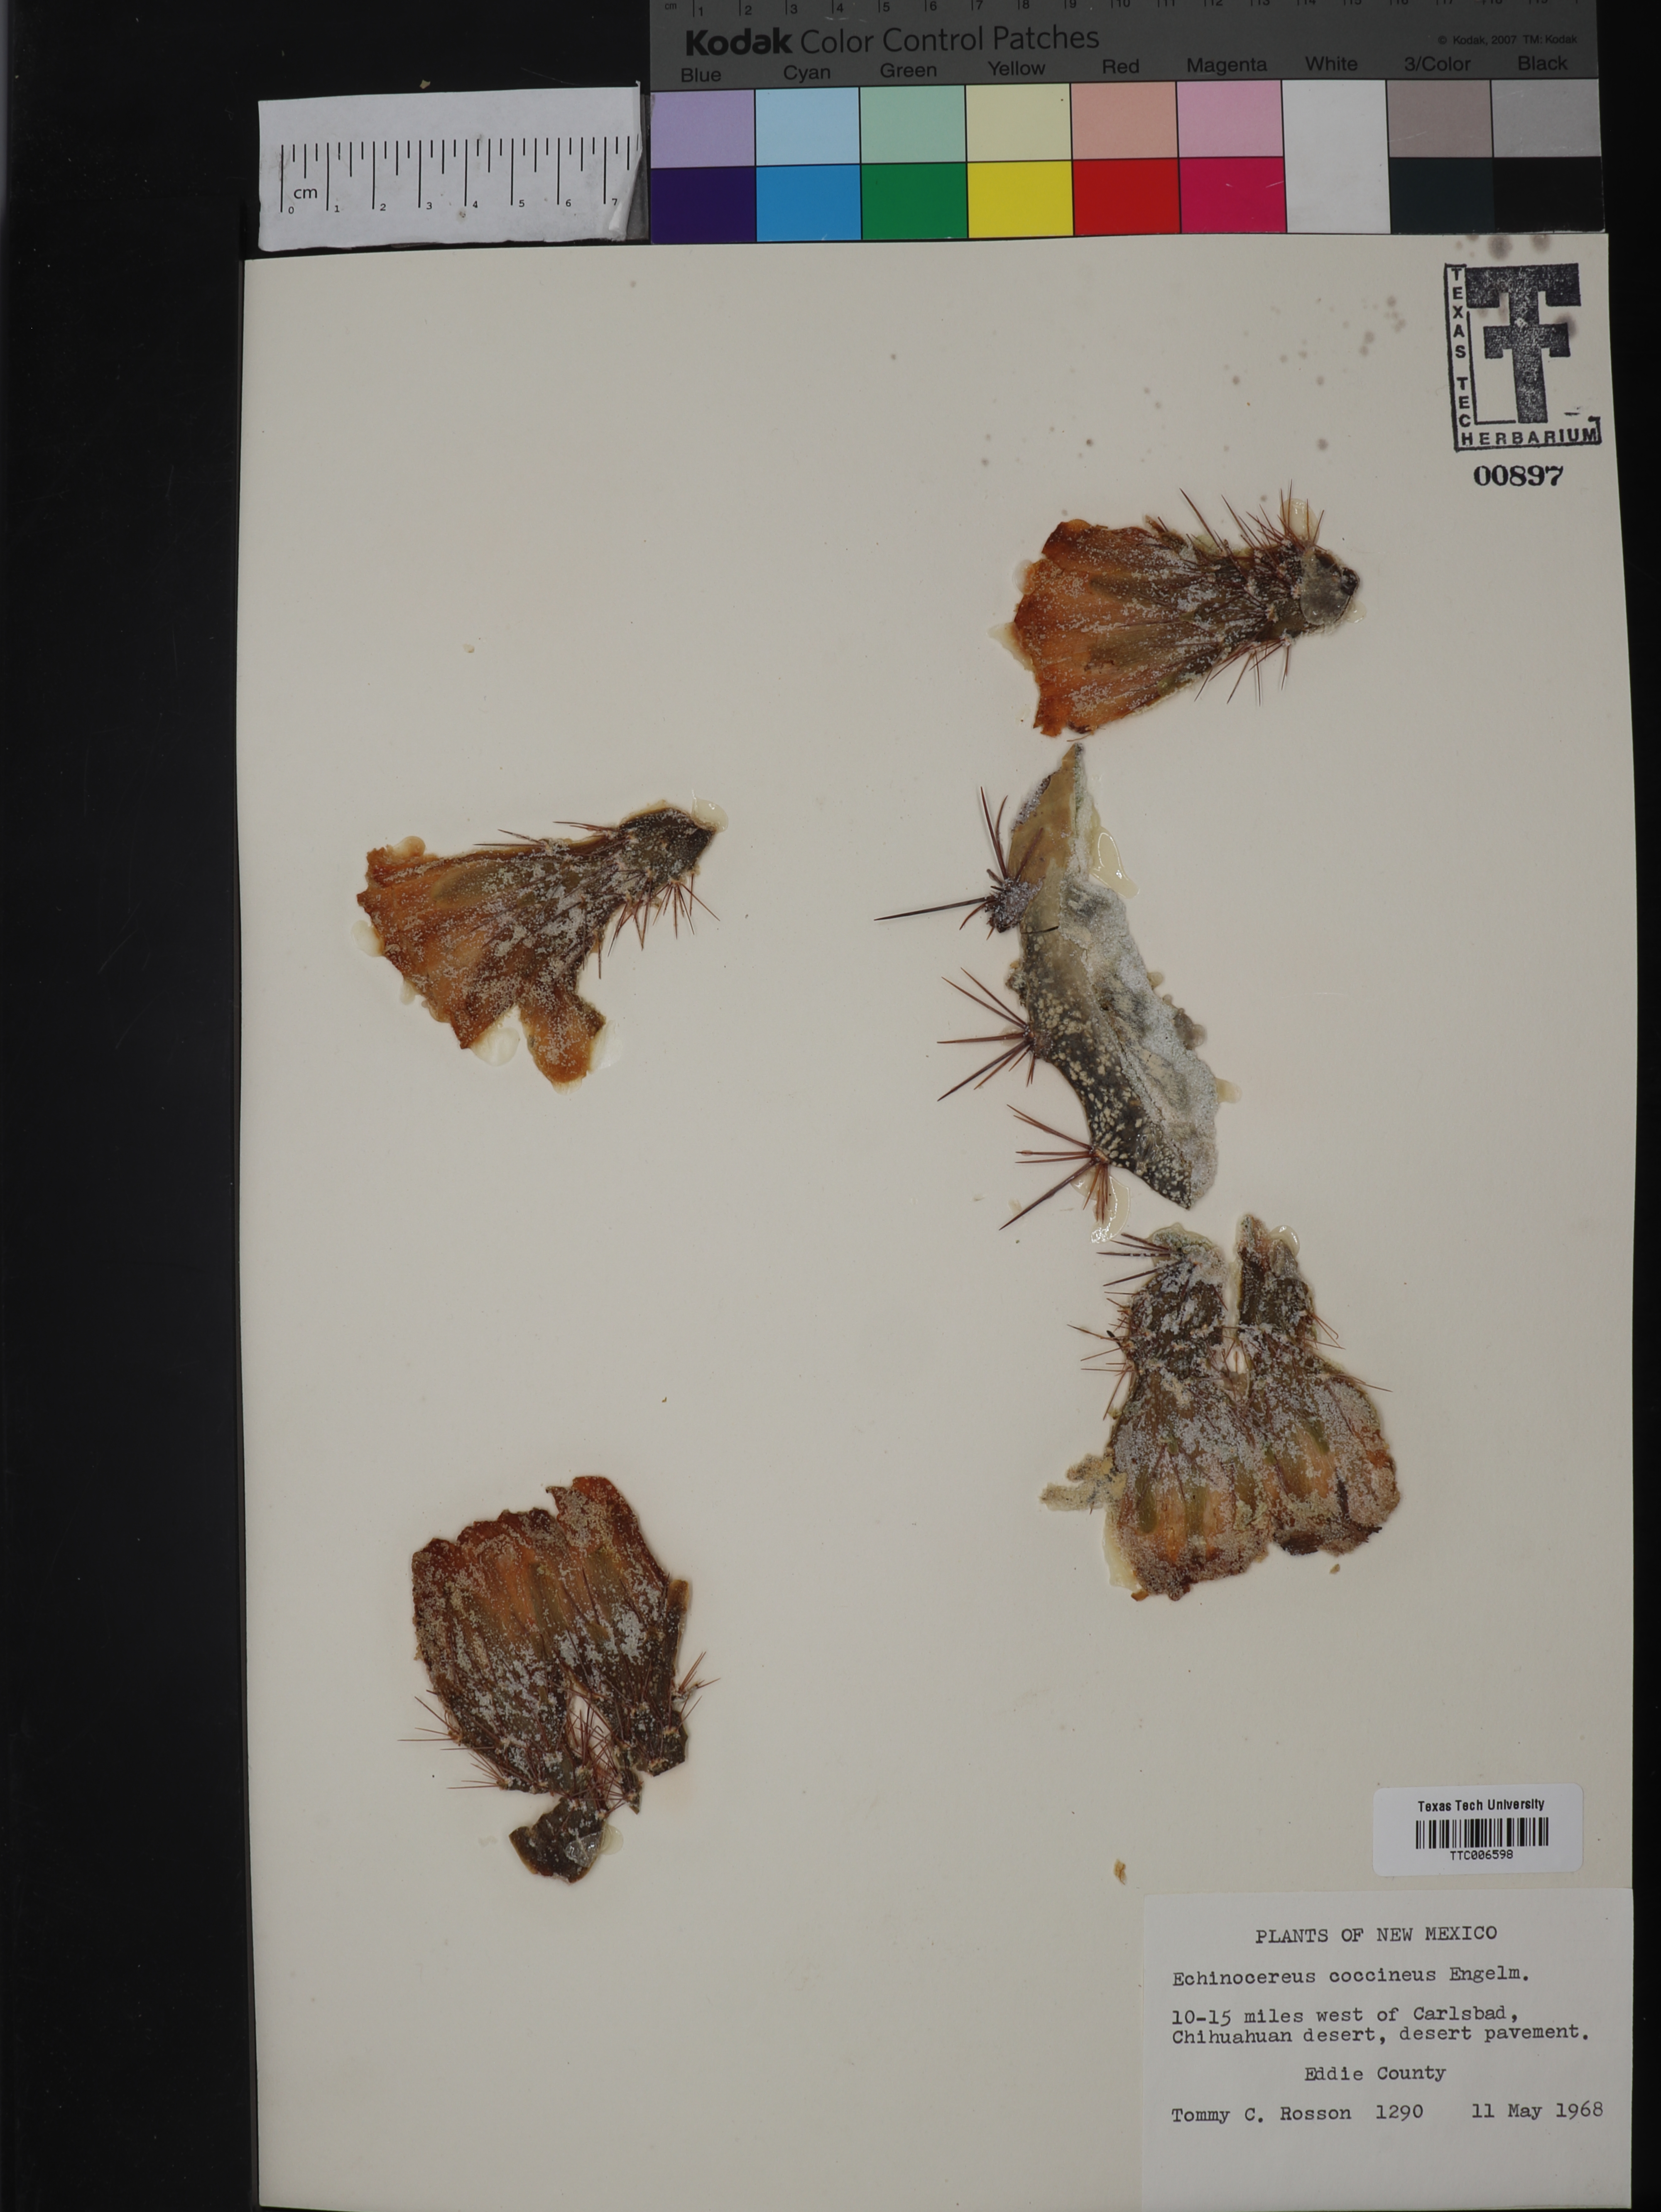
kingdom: Plantae
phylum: Tracheophyta
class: Magnoliopsida
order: Caryophyllales
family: Cactaceae
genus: Denmoza
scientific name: Denmoza rhodacantha
